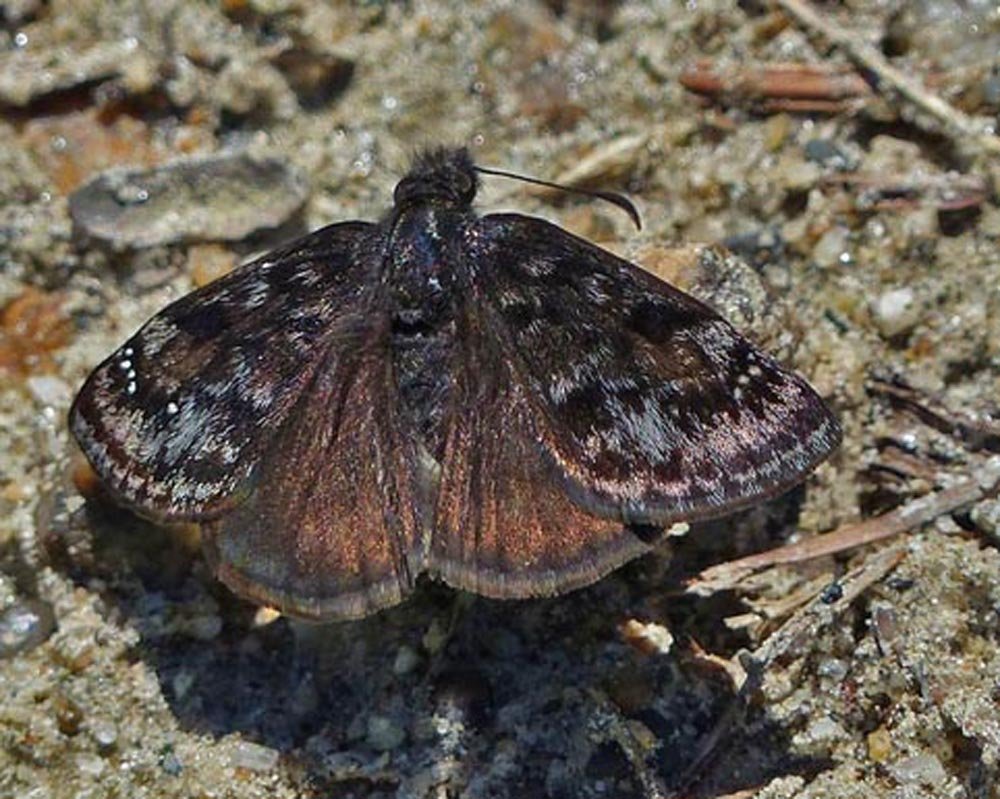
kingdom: Animalia
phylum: Arthropoda
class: Insecta
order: Lepidoptera
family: Hesperiidae
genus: Erynnis
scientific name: Erynnis pacuvius
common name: Pacuvius Duskywing
